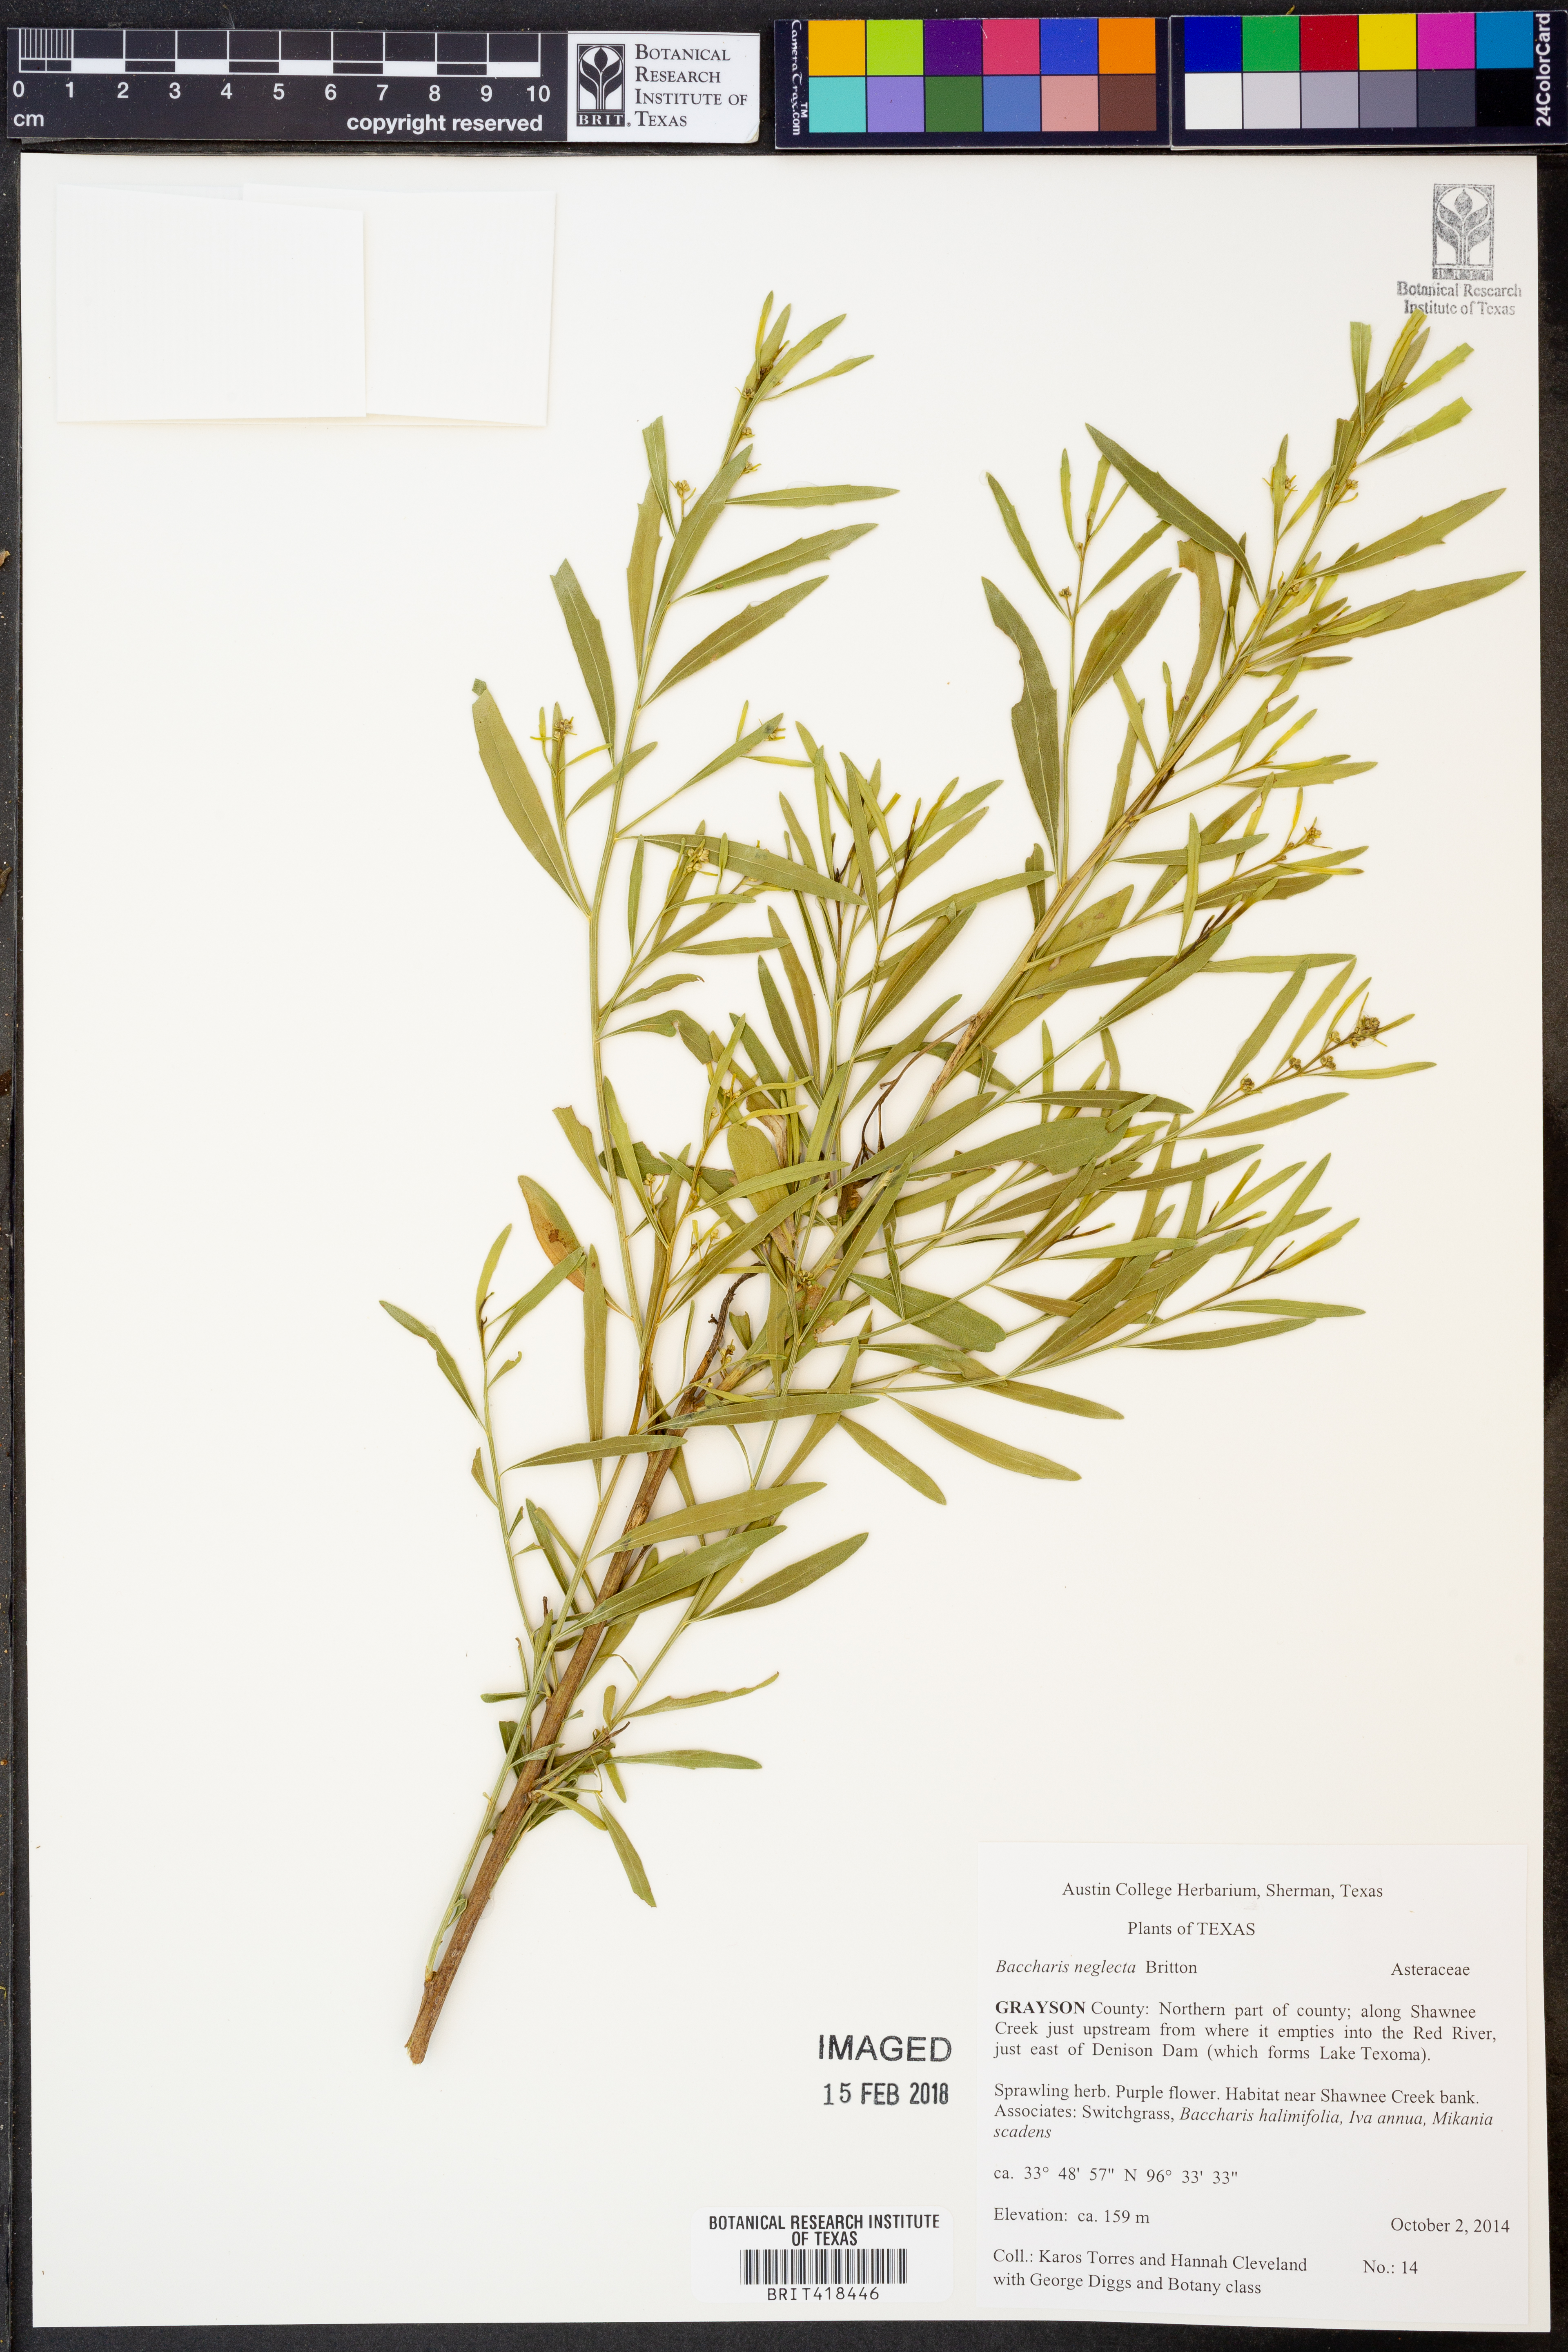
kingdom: Plantae
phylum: Tracheophyta
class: Magnoliopsida
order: Asterales
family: Asteraceae
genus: Baccharis
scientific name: Baccharis neglecta
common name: Roosevelt-weed
